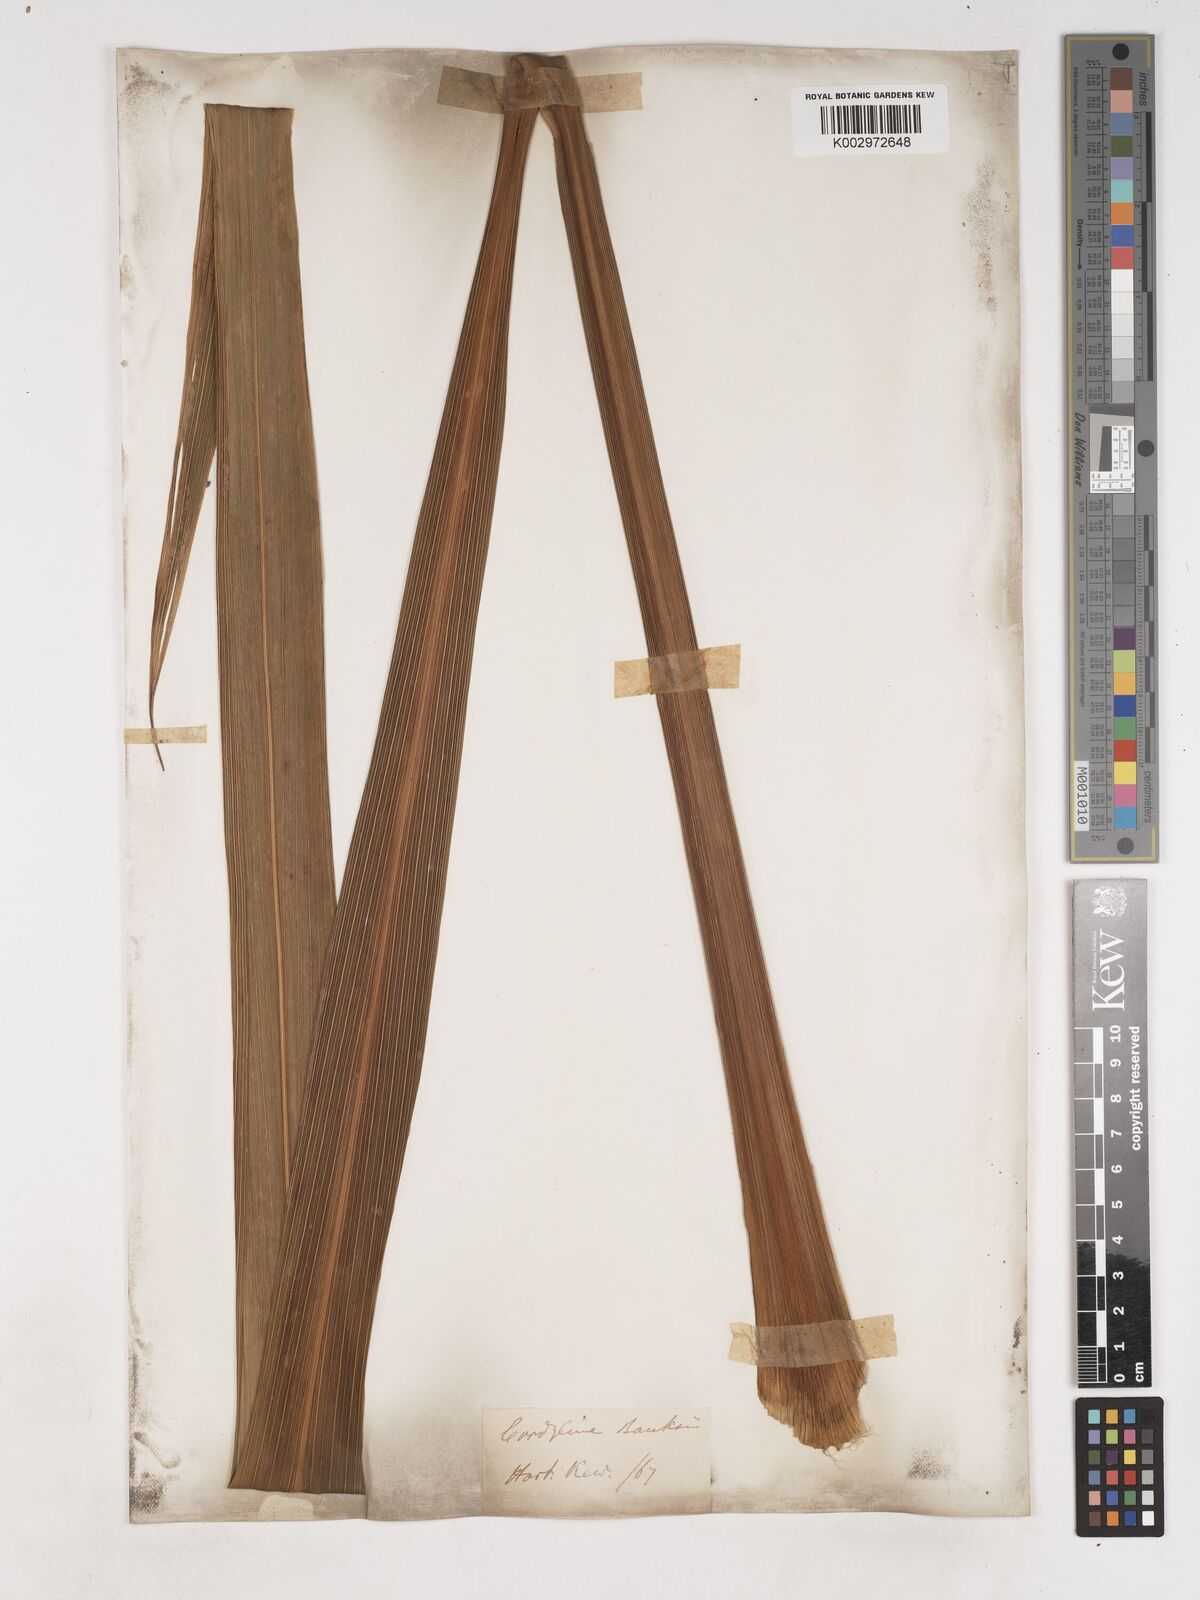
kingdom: Plantae
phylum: Tracheophyta
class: Liliopsida
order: Asparagales
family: Asparagaceae
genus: Cordyline
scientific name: Cordyline banksii
